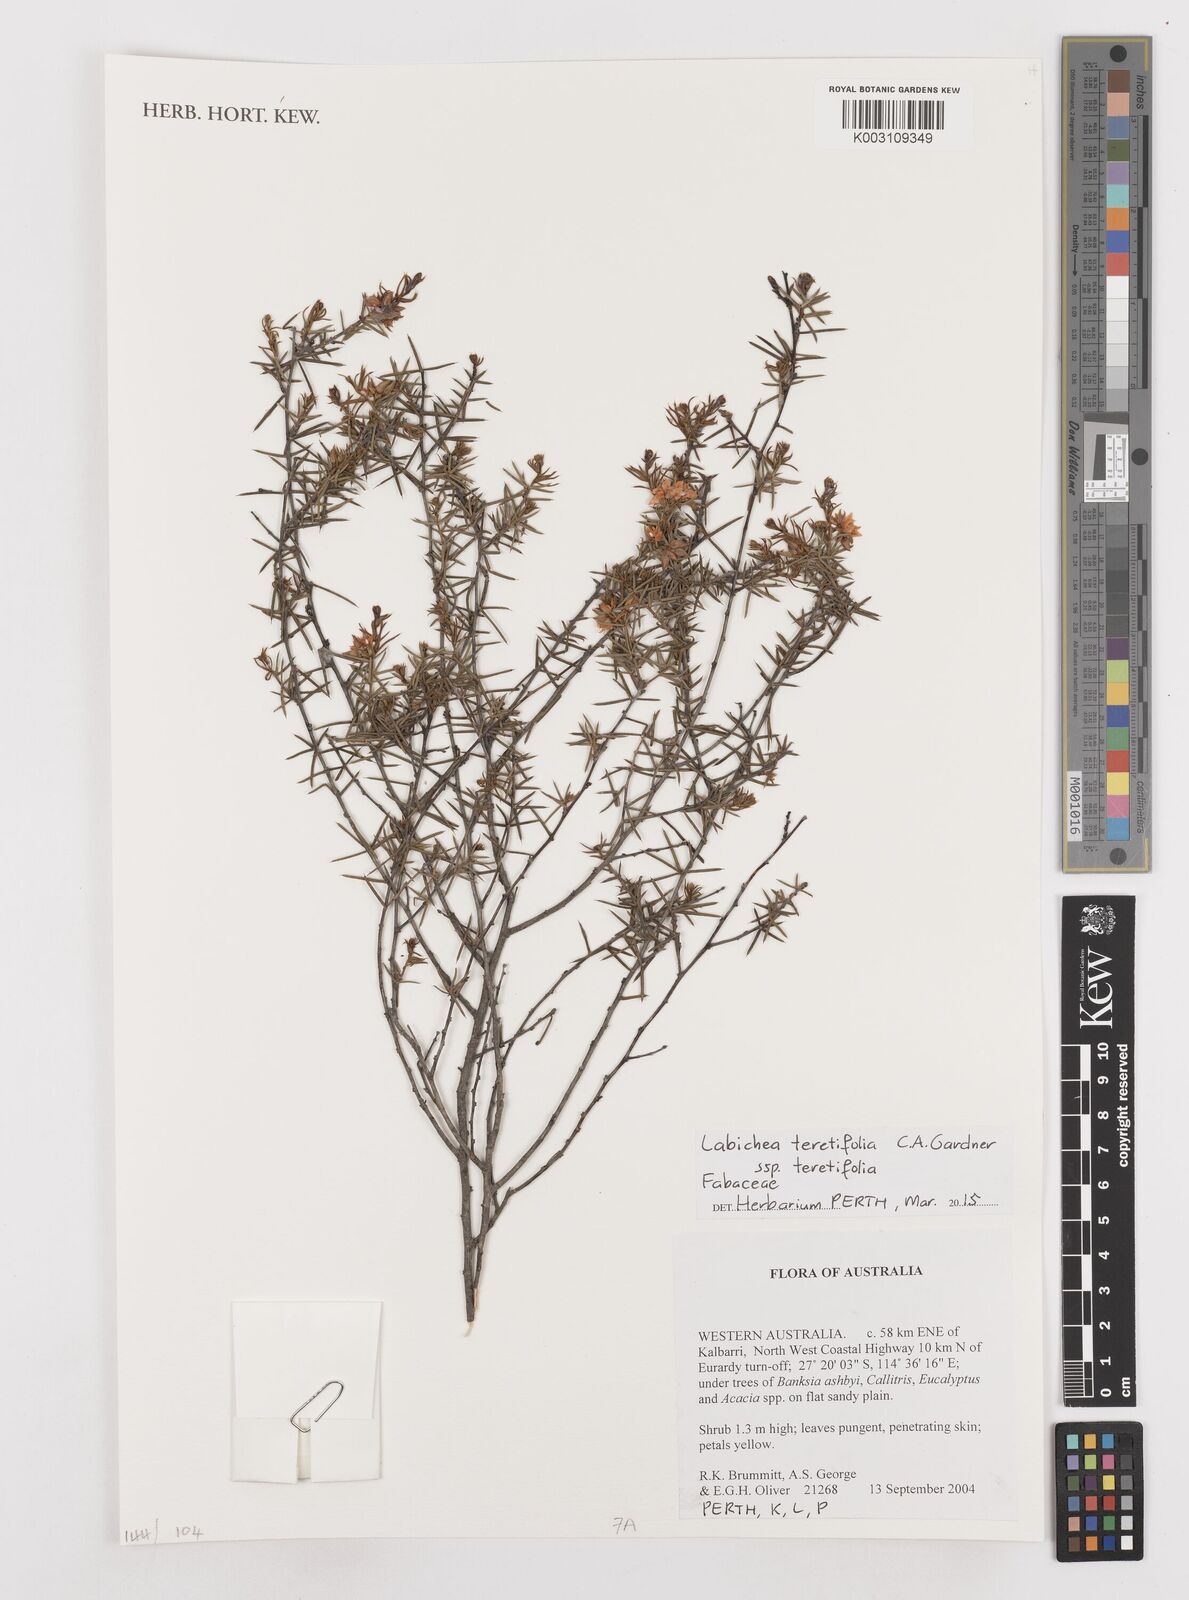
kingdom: Plantae
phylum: Tracheophyta
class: Magnoliopsida
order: Fabales
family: Fabaceae
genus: Labichea
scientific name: Labichea teretifolia
